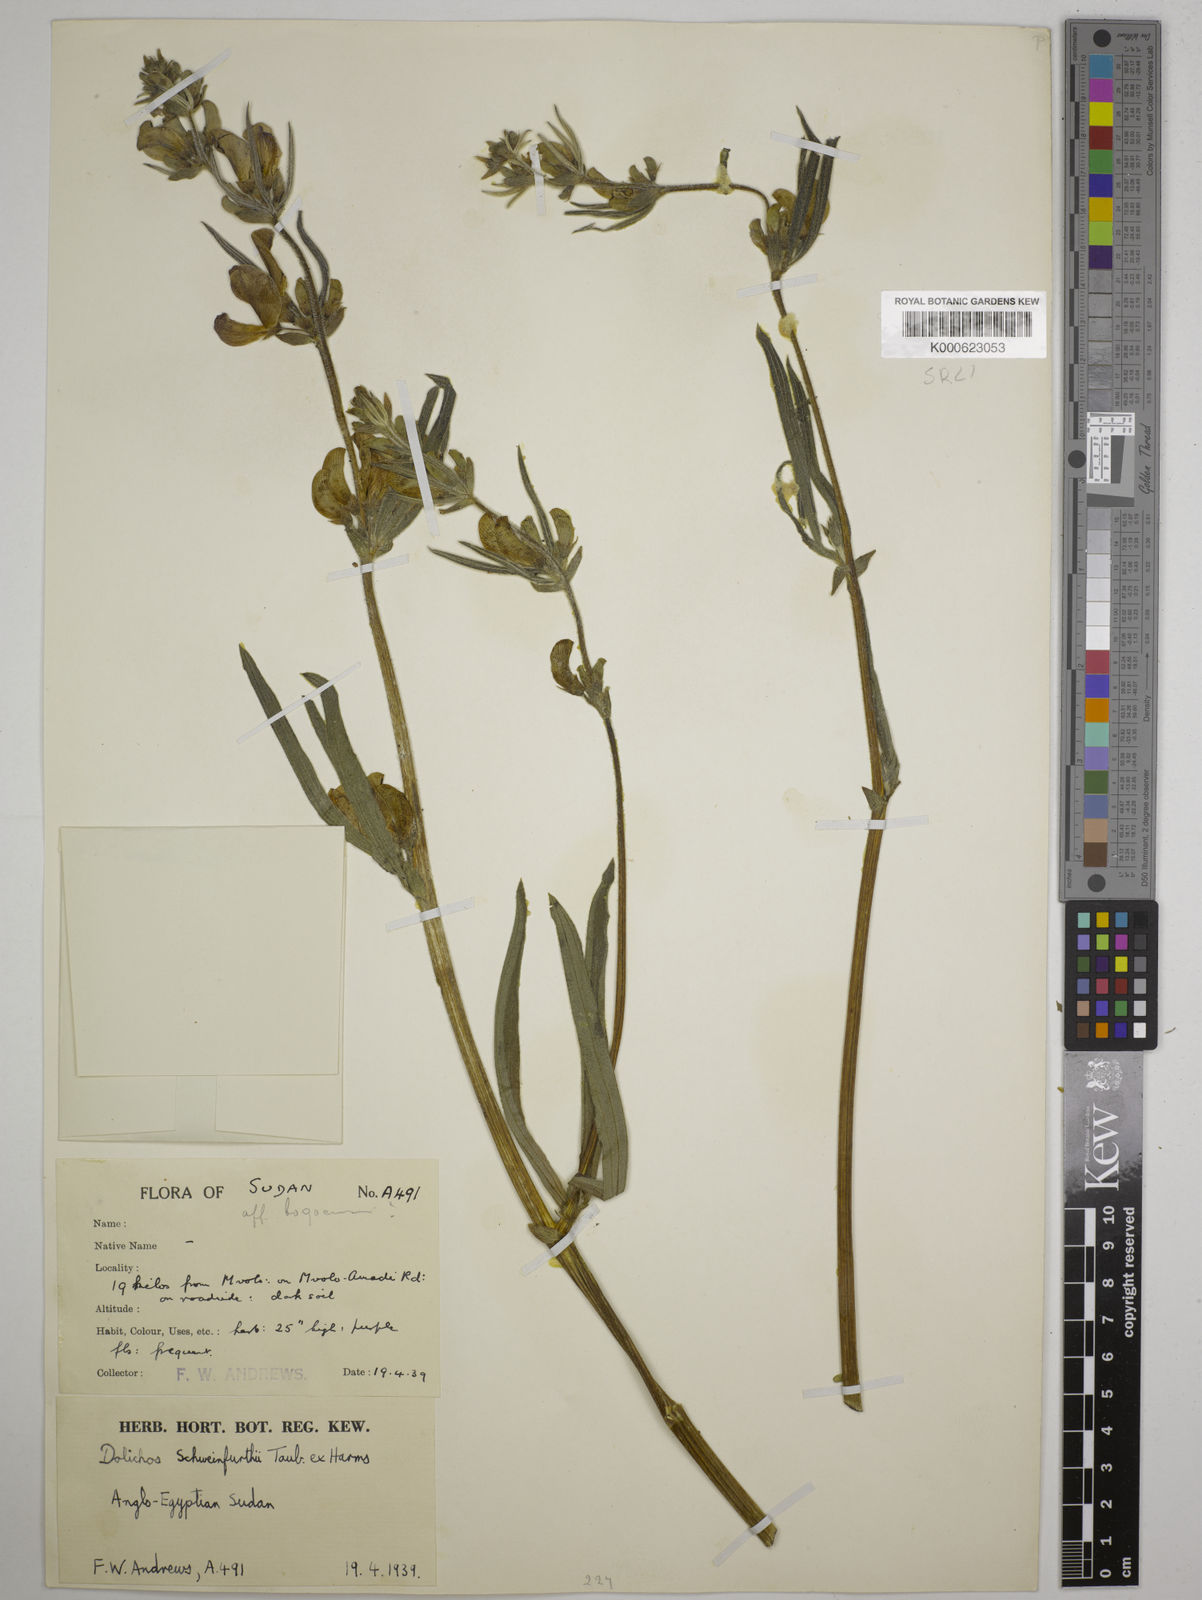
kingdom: Plantae
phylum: Tracheophyta
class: Magnoliopsida
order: Fabales
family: Fabaceae
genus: Dolichos
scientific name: Dolichos
